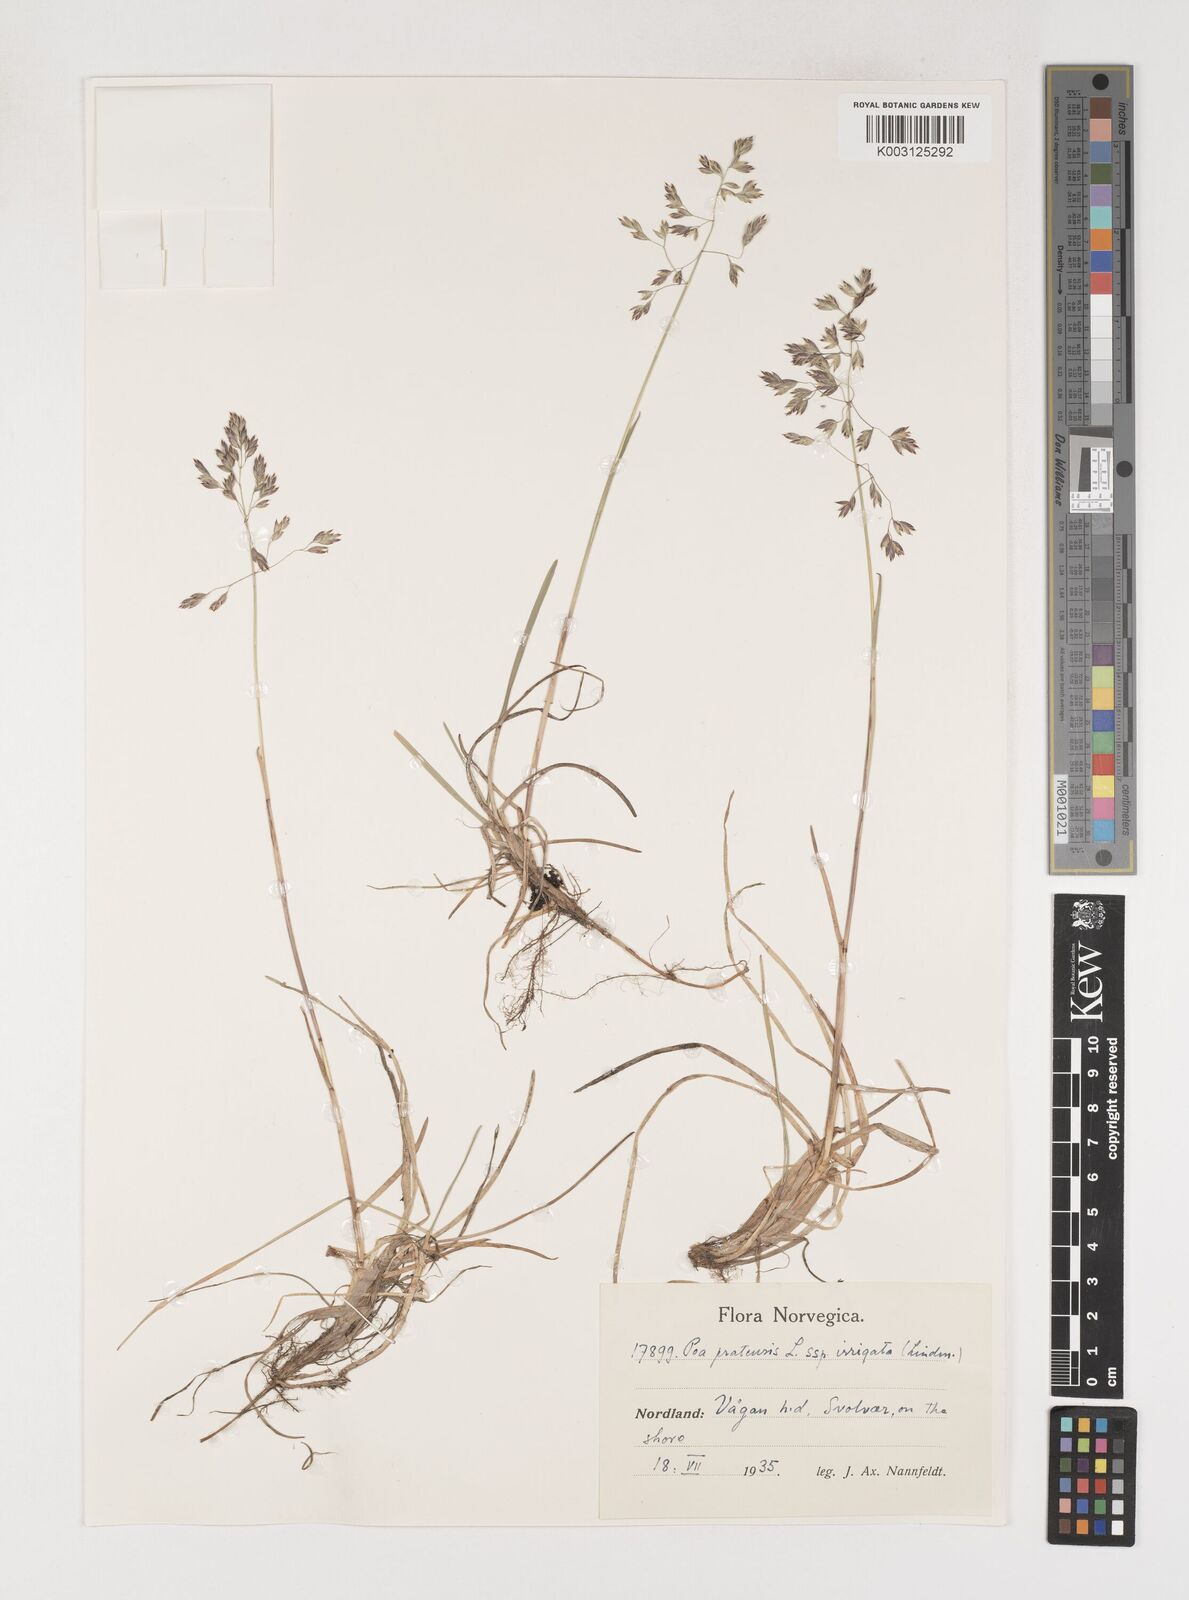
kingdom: Plantae
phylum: Tracheophyta
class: Liliopsida
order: Poales
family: Poaceae
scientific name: Poaceae
